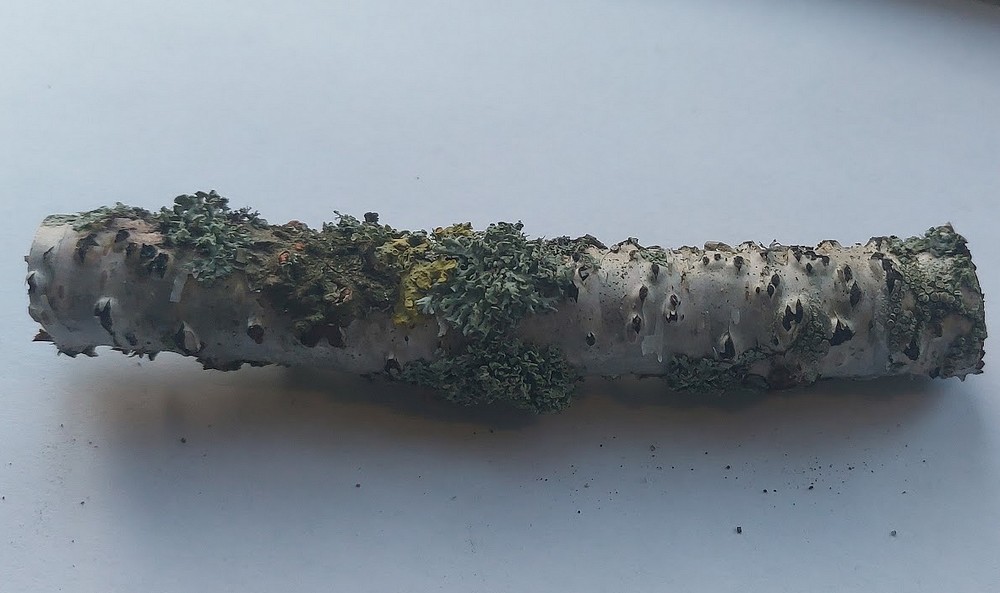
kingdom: Fungi
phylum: Ascomycota
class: Sordariomycetes
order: Xylariales
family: Diatrypaceae
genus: Diatrypella
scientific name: Diatrypella favacea
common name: klemt kulskorpe
